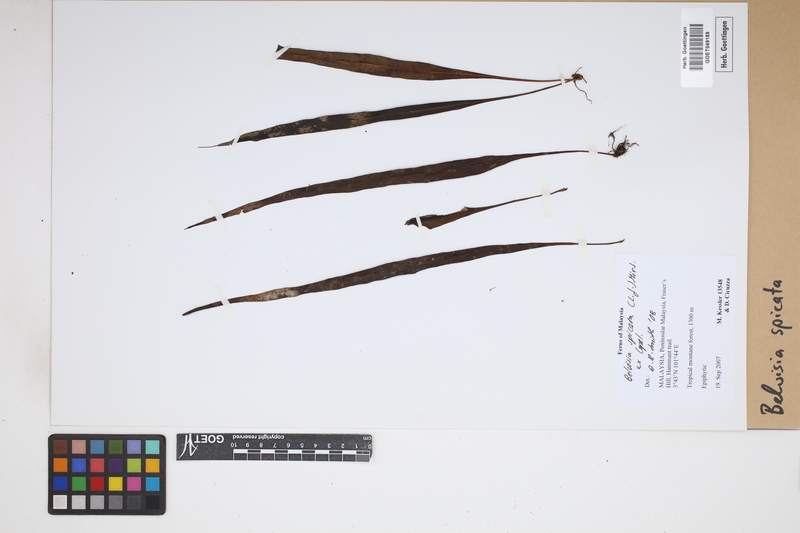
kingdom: Plantae
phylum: Tracheophyta
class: Polypodiopsida
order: Polypodiales
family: Polypodiaceae
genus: Lepisorus
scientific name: Lepisorus spicatus
